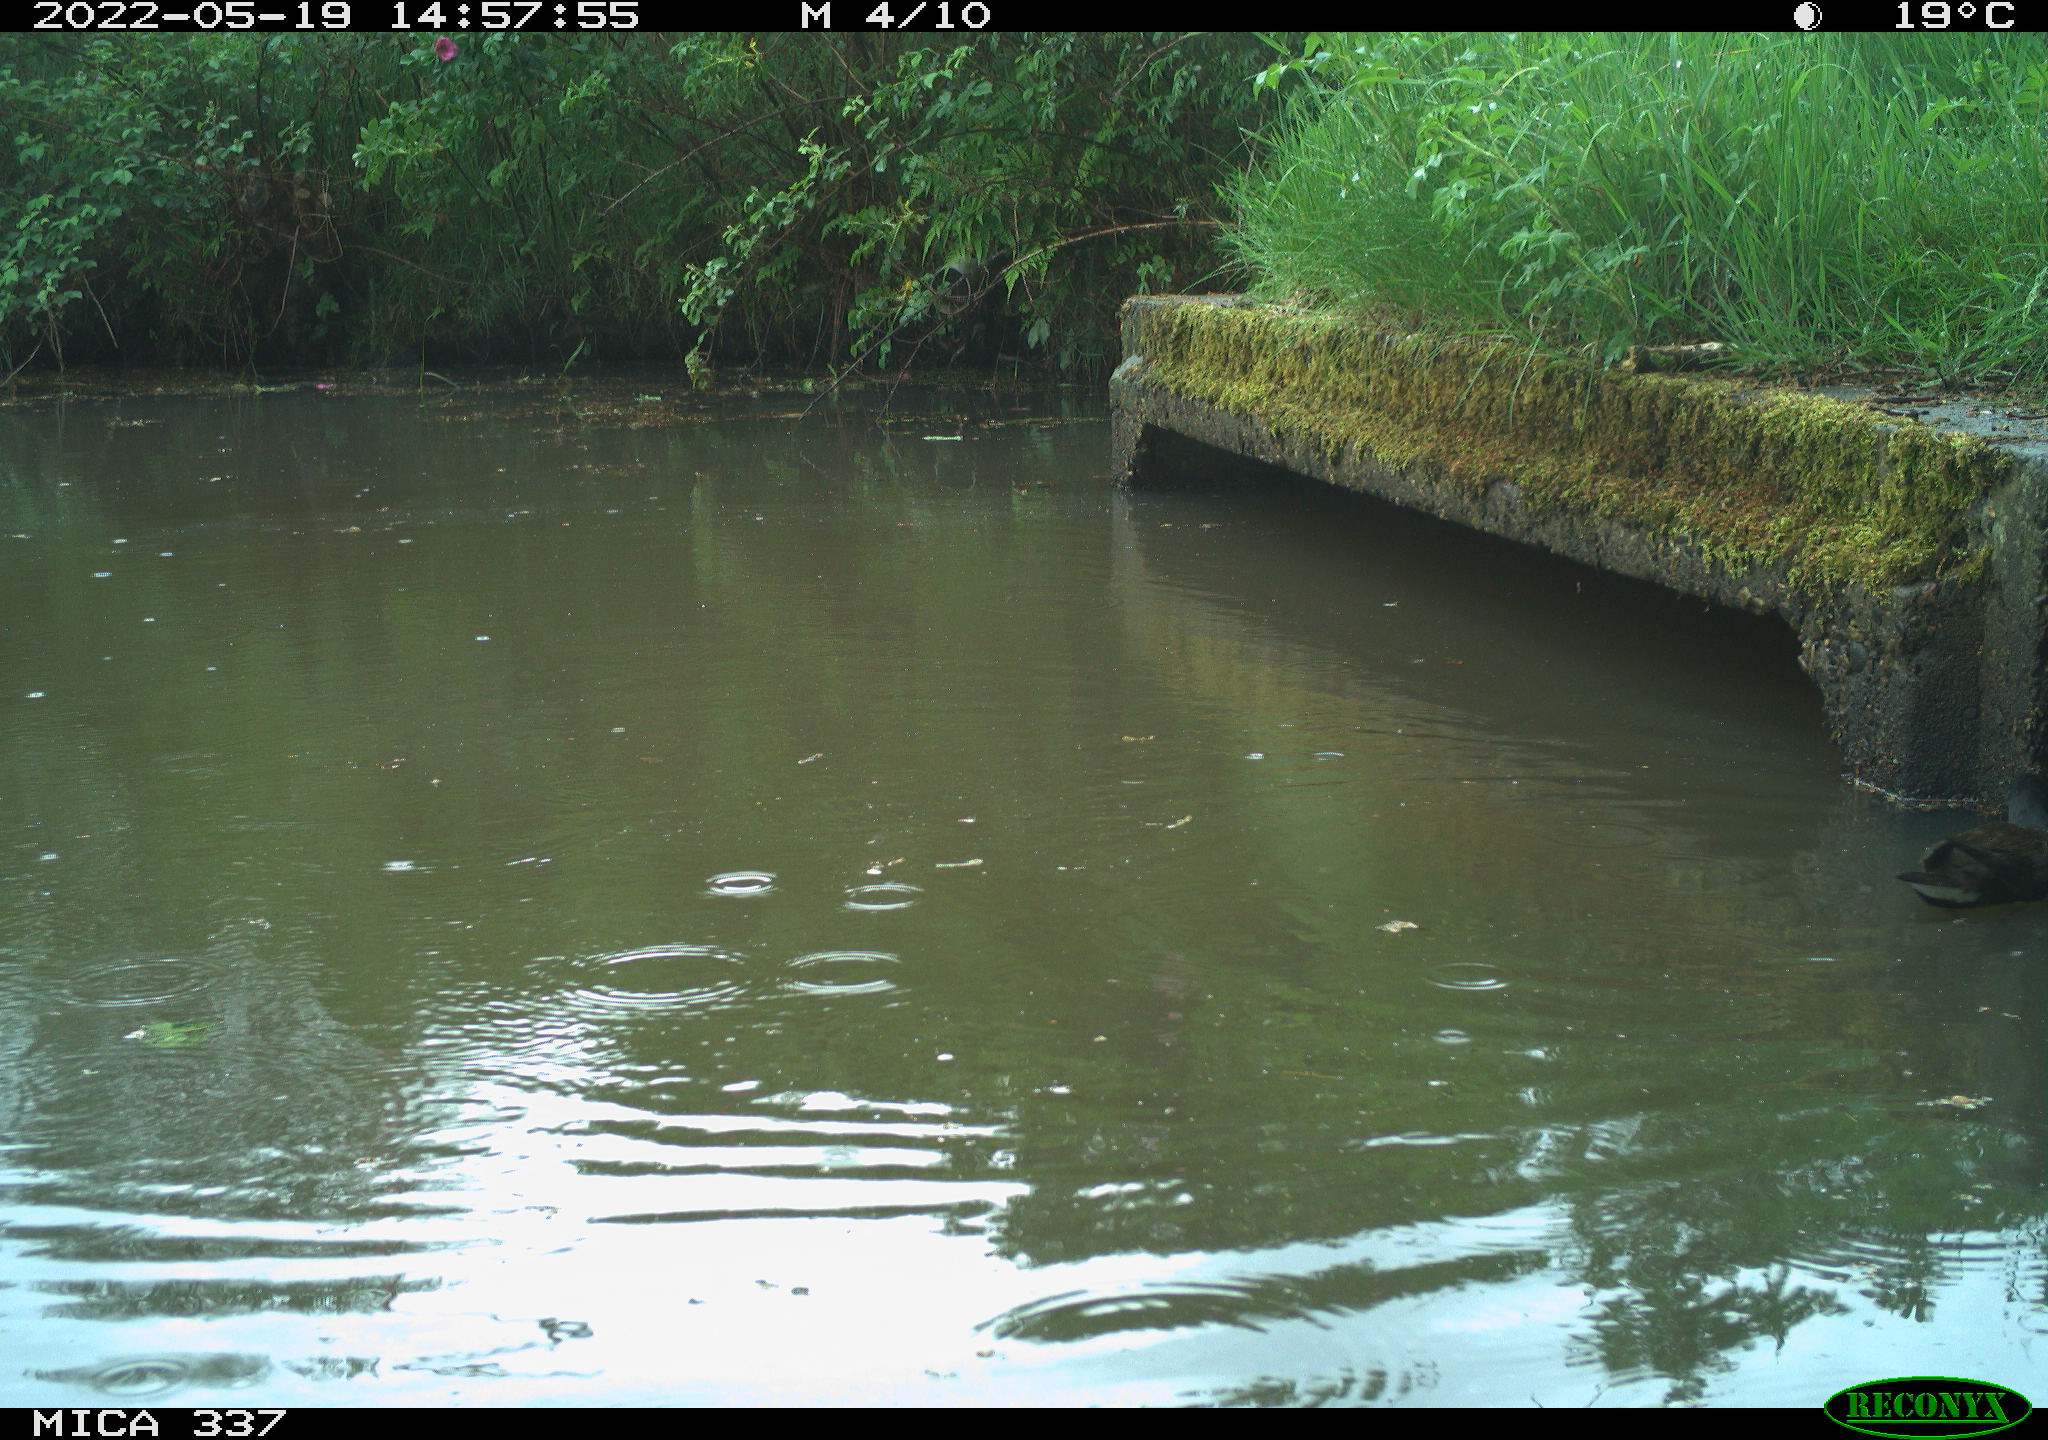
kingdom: Animalia
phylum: Chordata
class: Aves
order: Gruiformes
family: Rallidae
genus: Gallinula
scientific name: Gallinula chloropus
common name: Common moorhen
